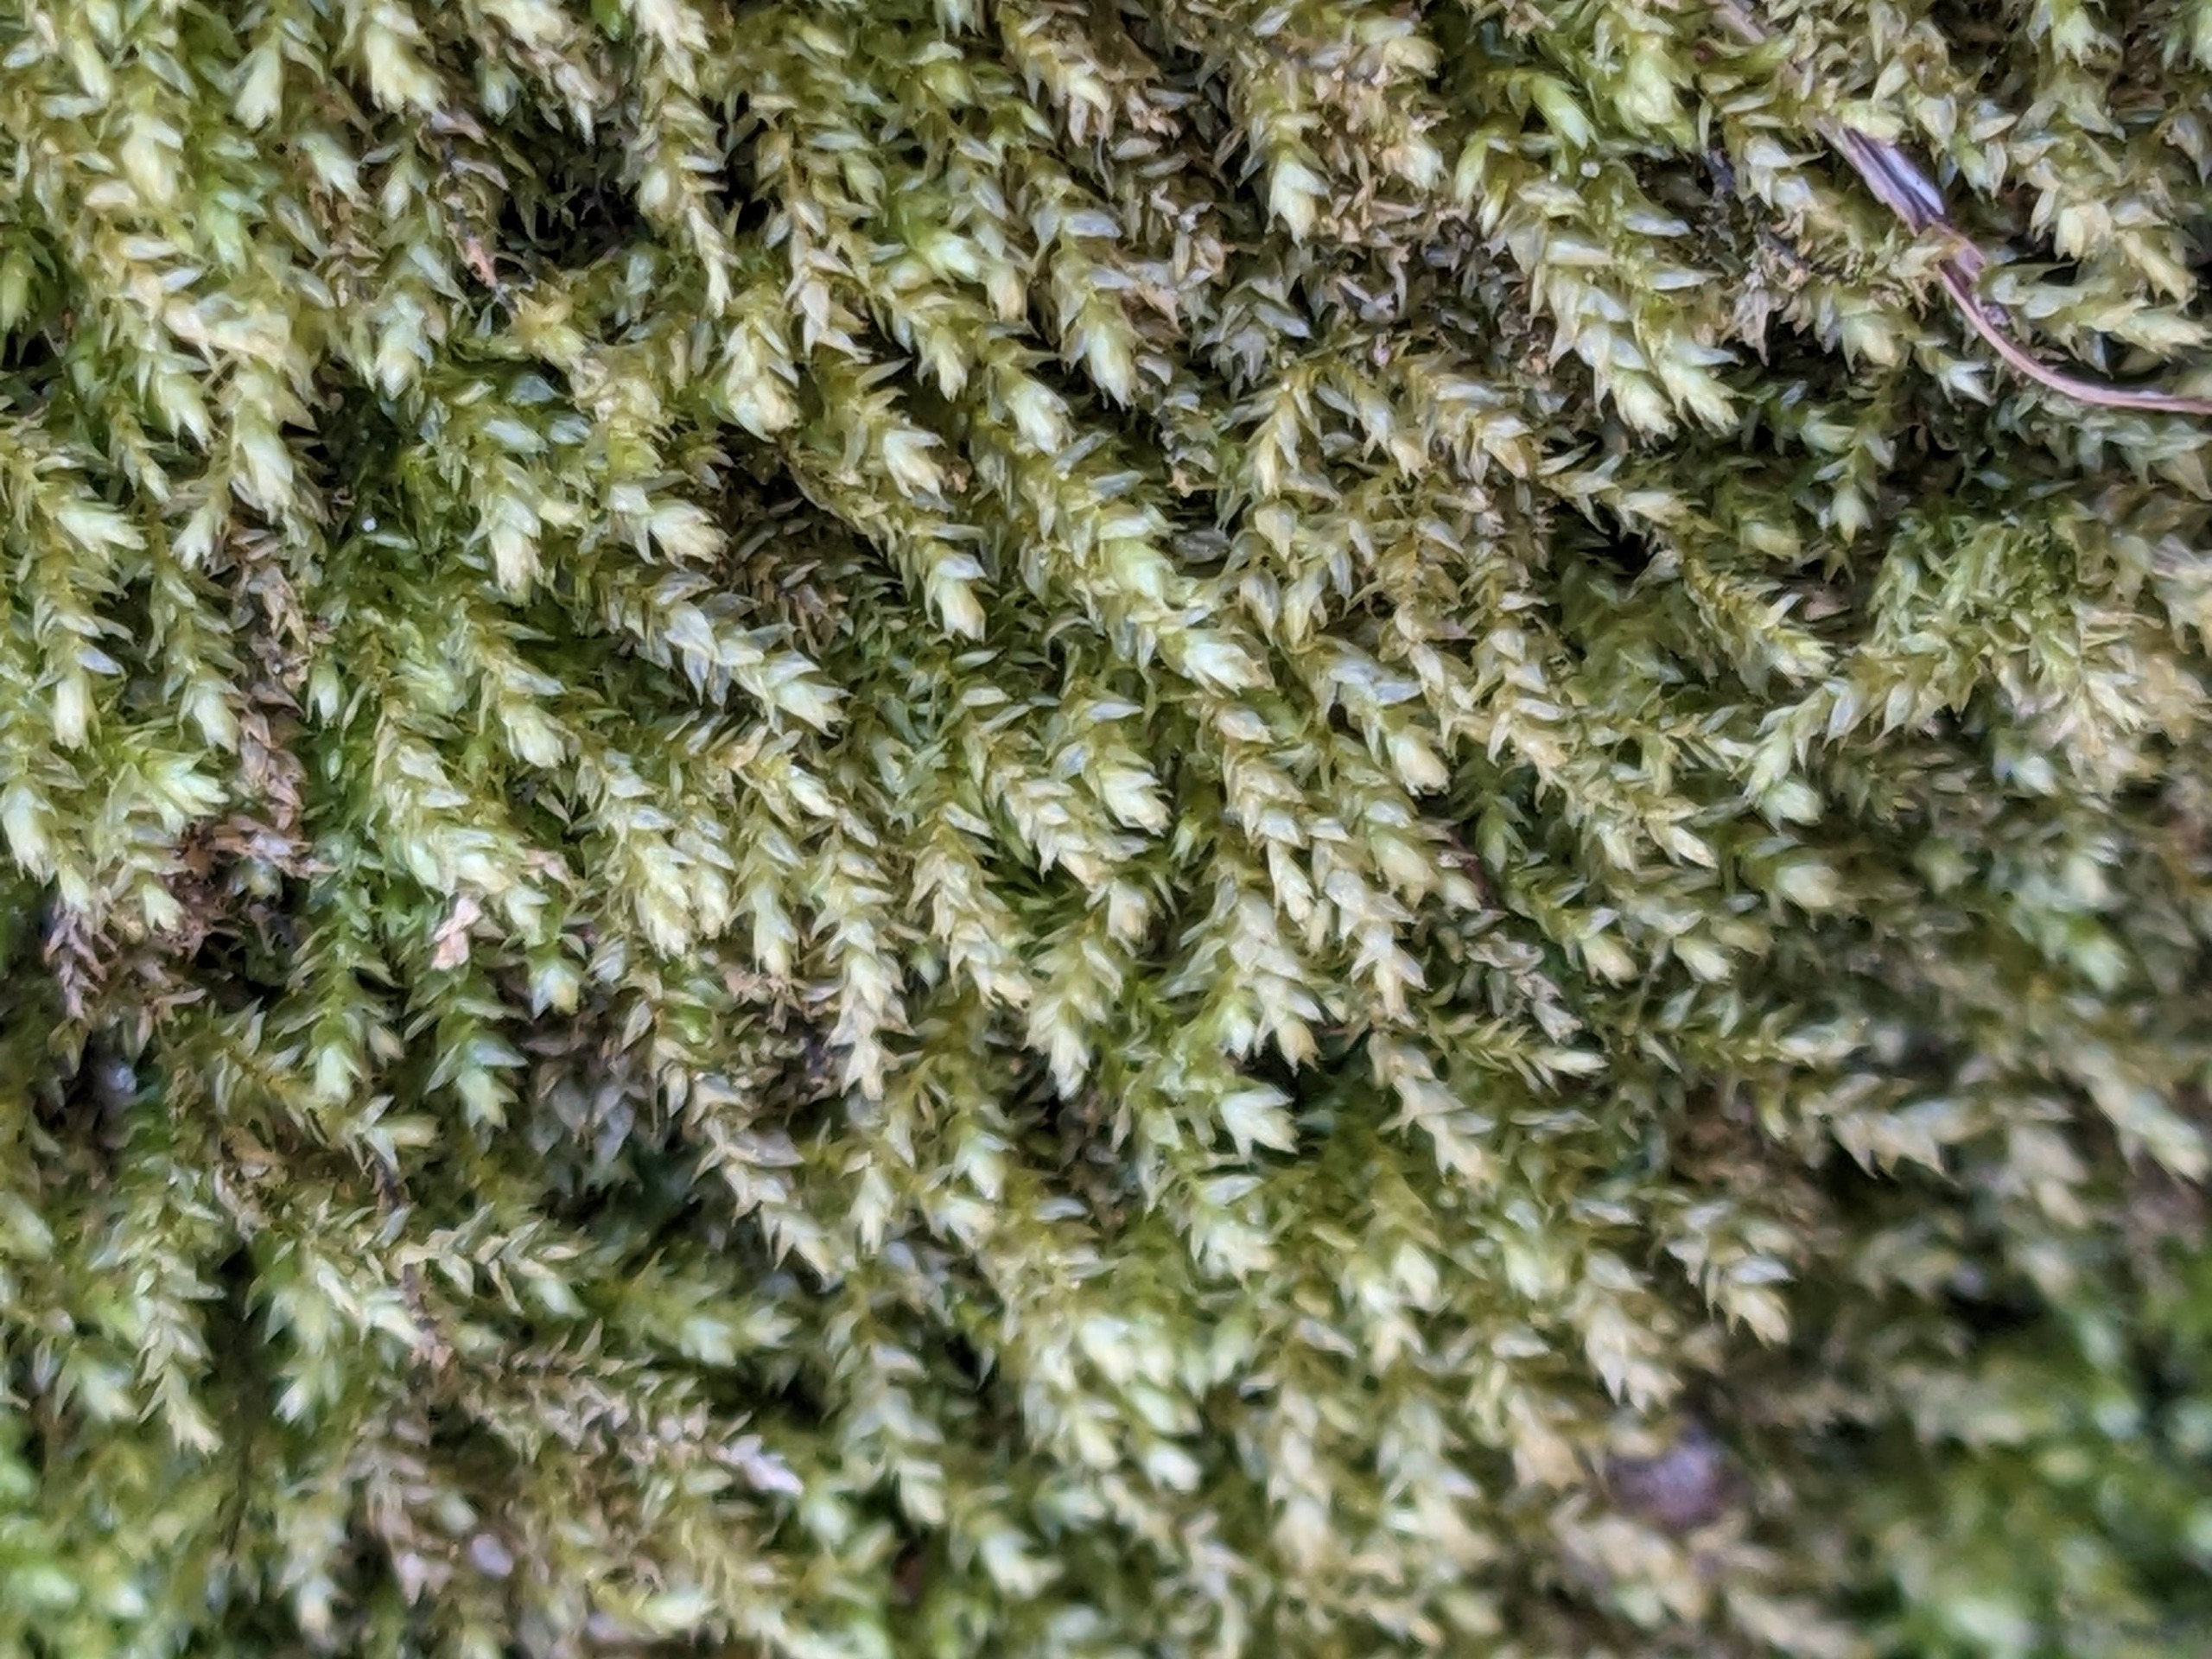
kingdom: Plantae
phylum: Bryophyta
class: Bryopsida
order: Hypnales
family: Brachytheciaceae
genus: Oxyrrhynchium
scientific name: Oxyrrhynchium hians
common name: Ler-vortetand
